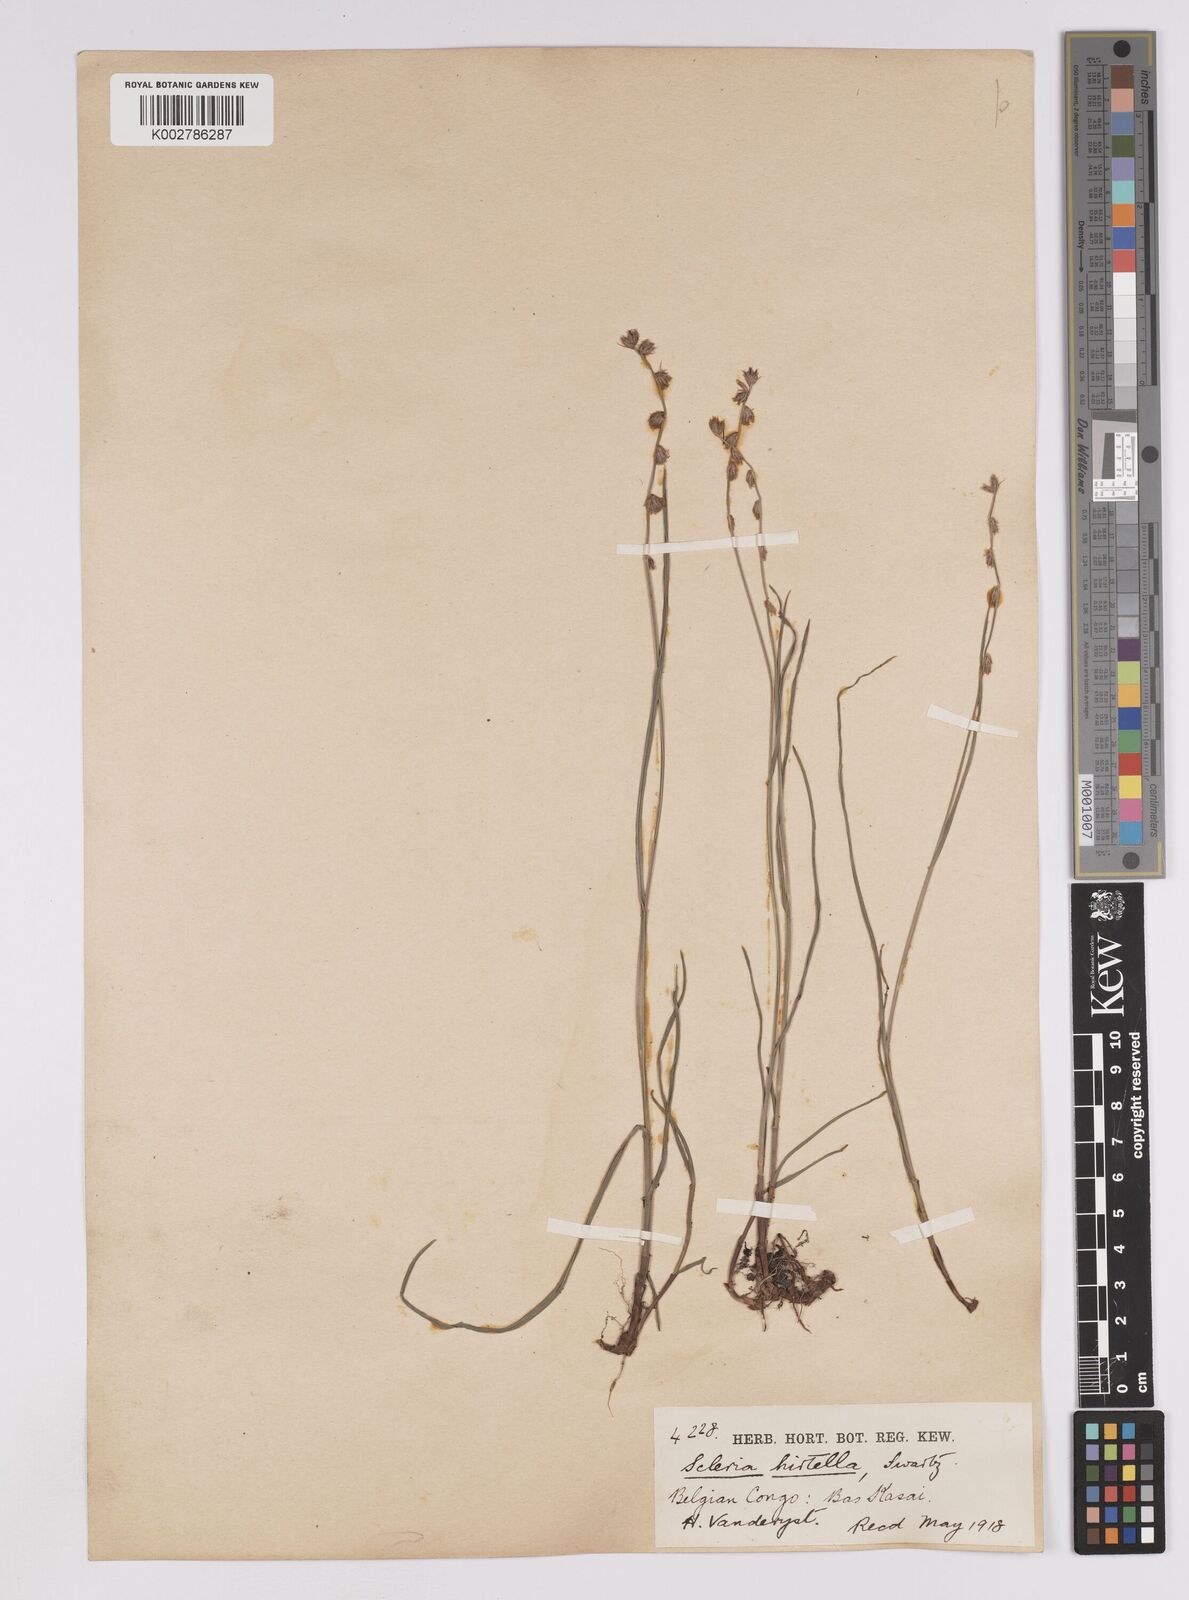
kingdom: Plantae
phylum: Tracheophyta
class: Liliopsida
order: Poales
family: Cyperaceae
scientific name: Cyperaceae
